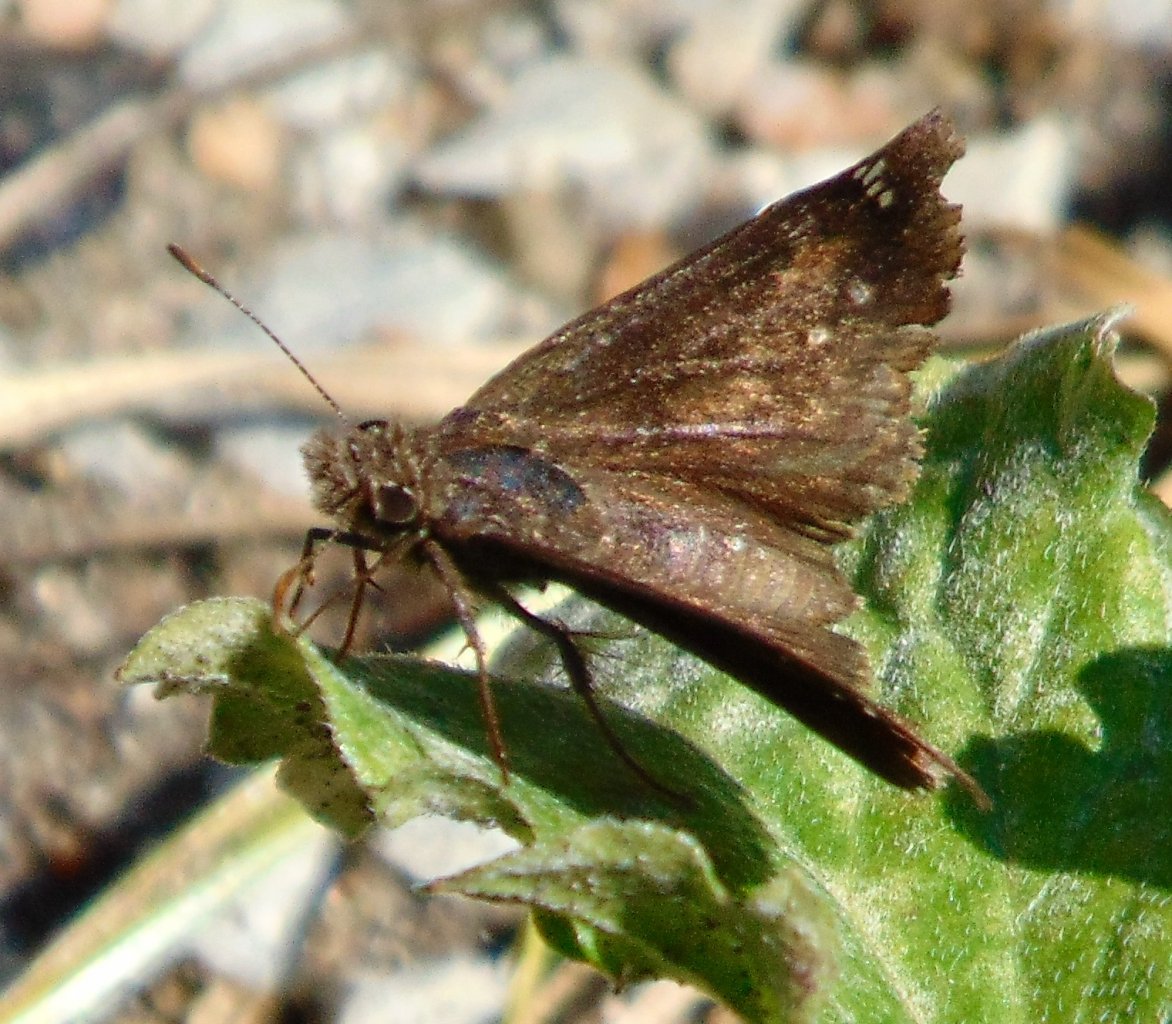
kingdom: Animalia
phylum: Arthropoda
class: Insecta
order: Lepidoptera
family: Hesperiidae
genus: Gesta
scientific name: Gesta
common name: Wild Indigo Duskywing
